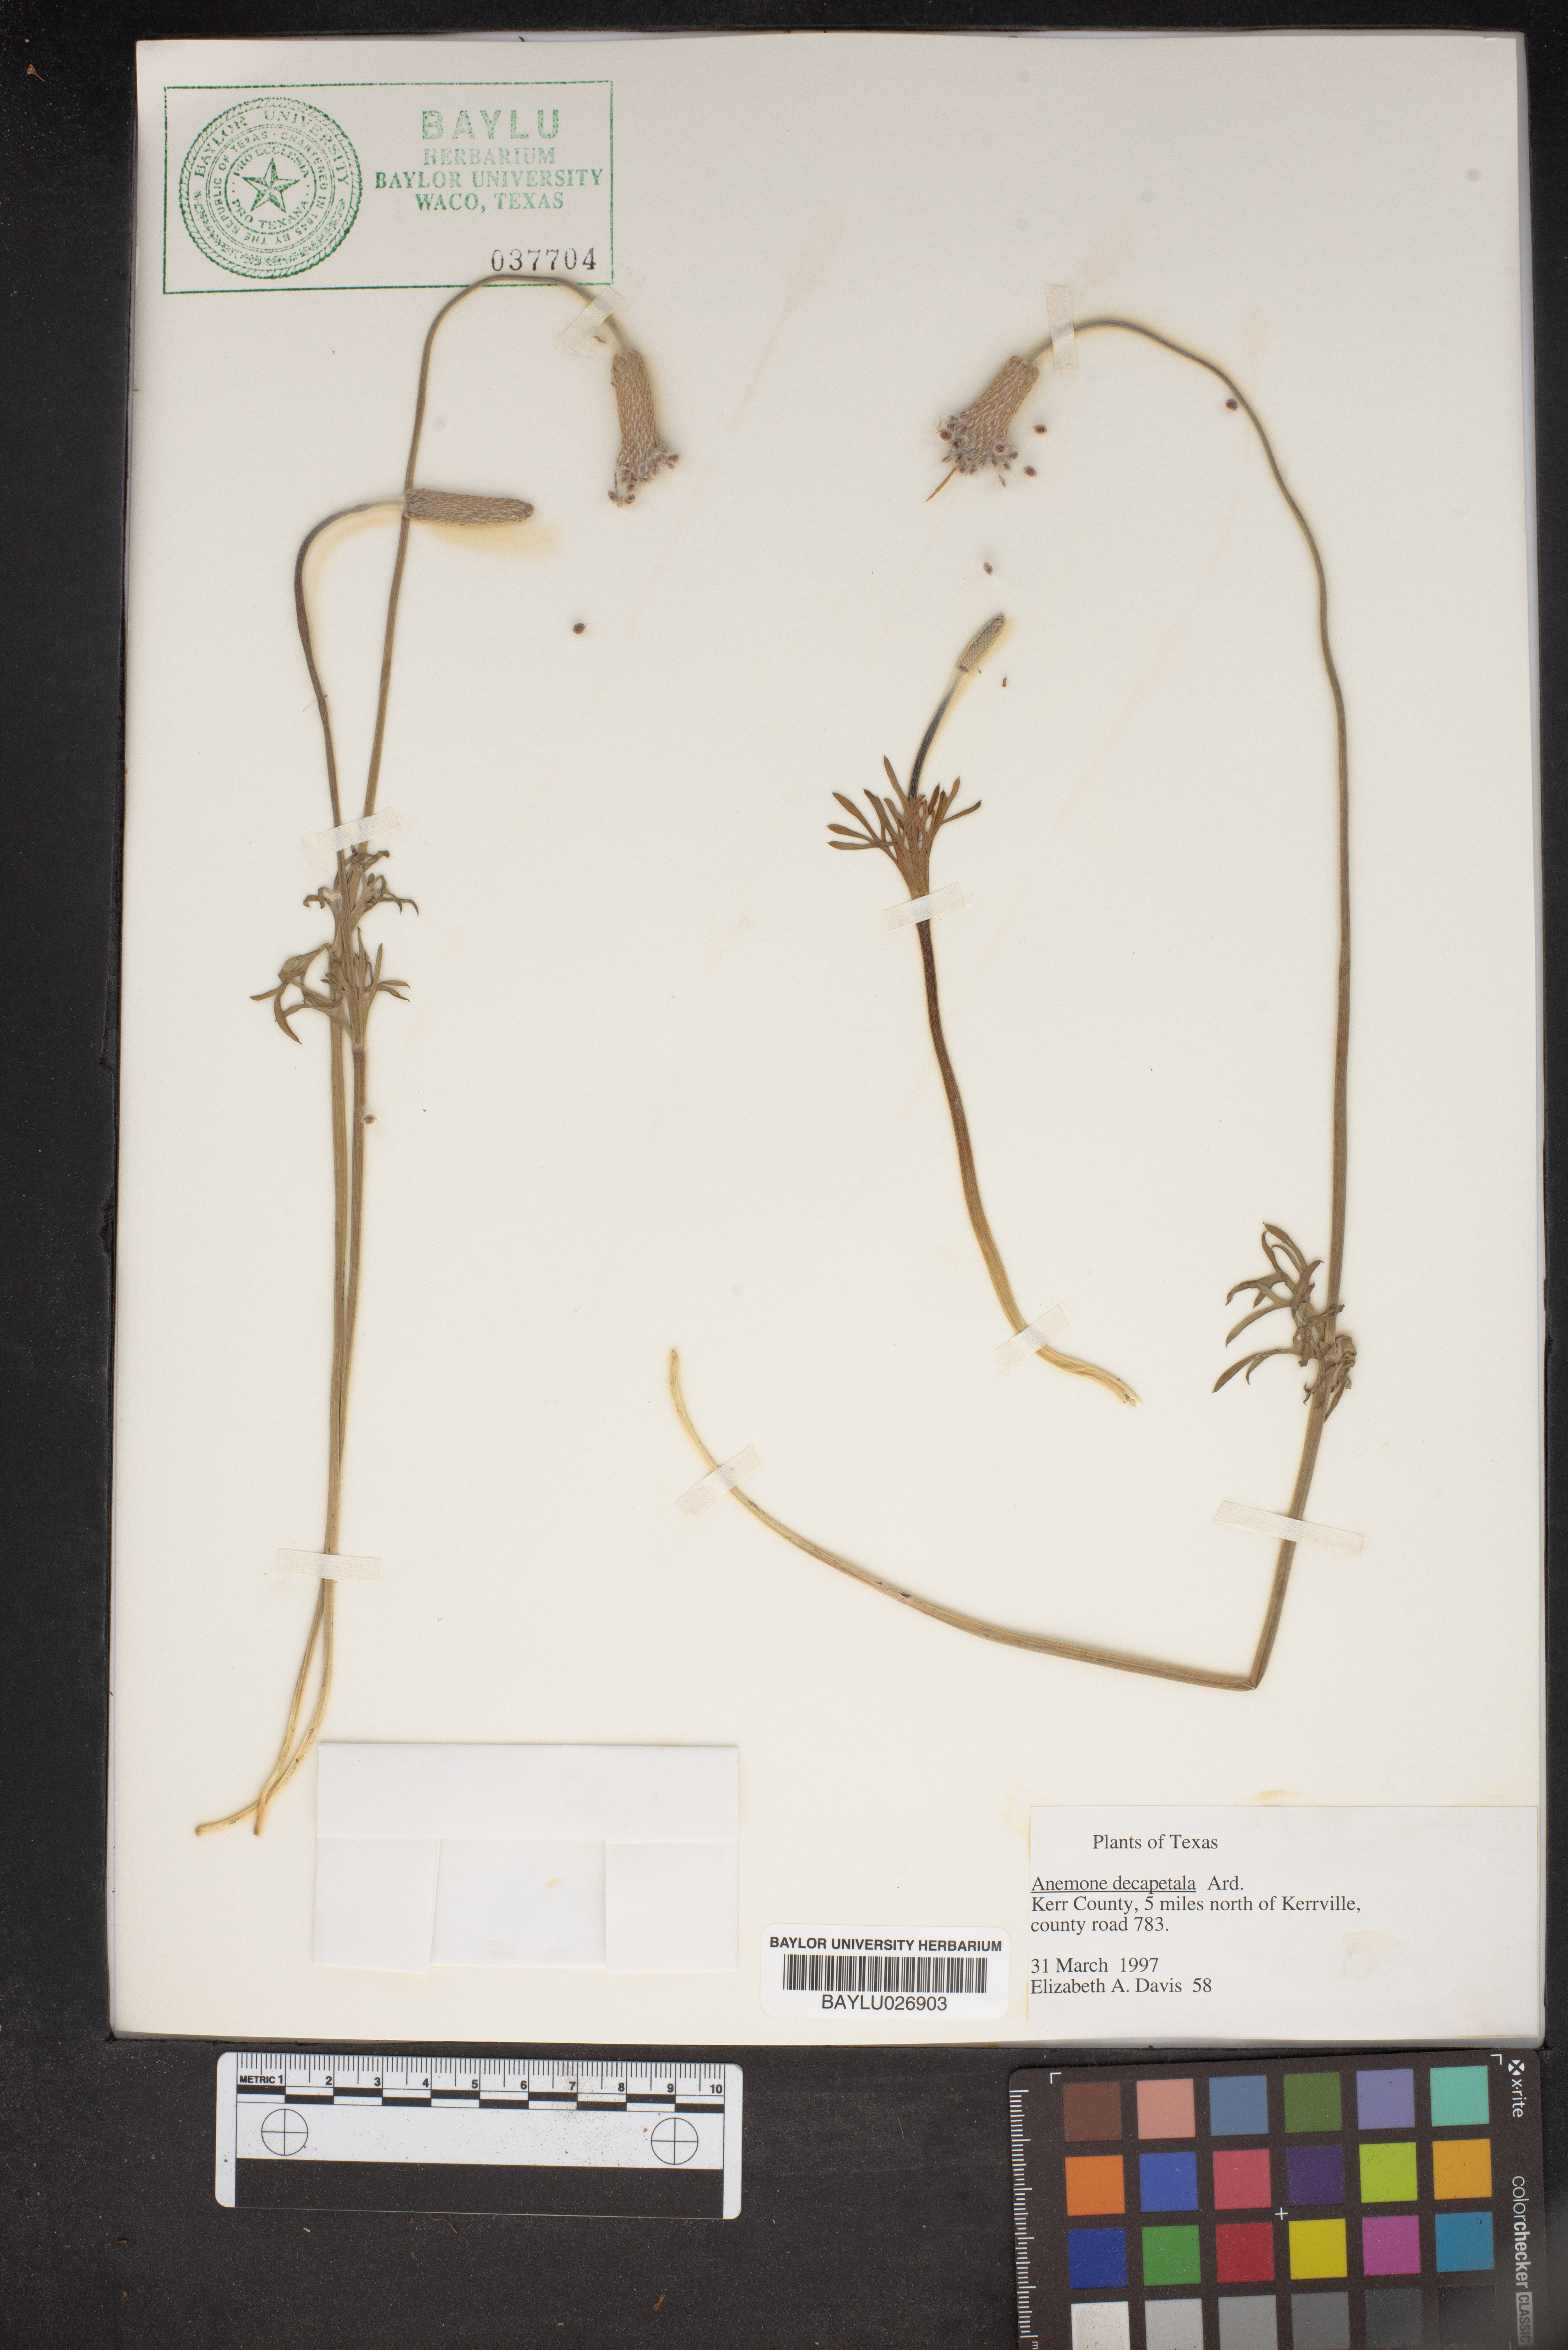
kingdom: Plantae
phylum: Tracheophyta
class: Magnoliopsida
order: Ranunculales
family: Ranunculaceae
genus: Anemone
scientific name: Anemone decapetala
